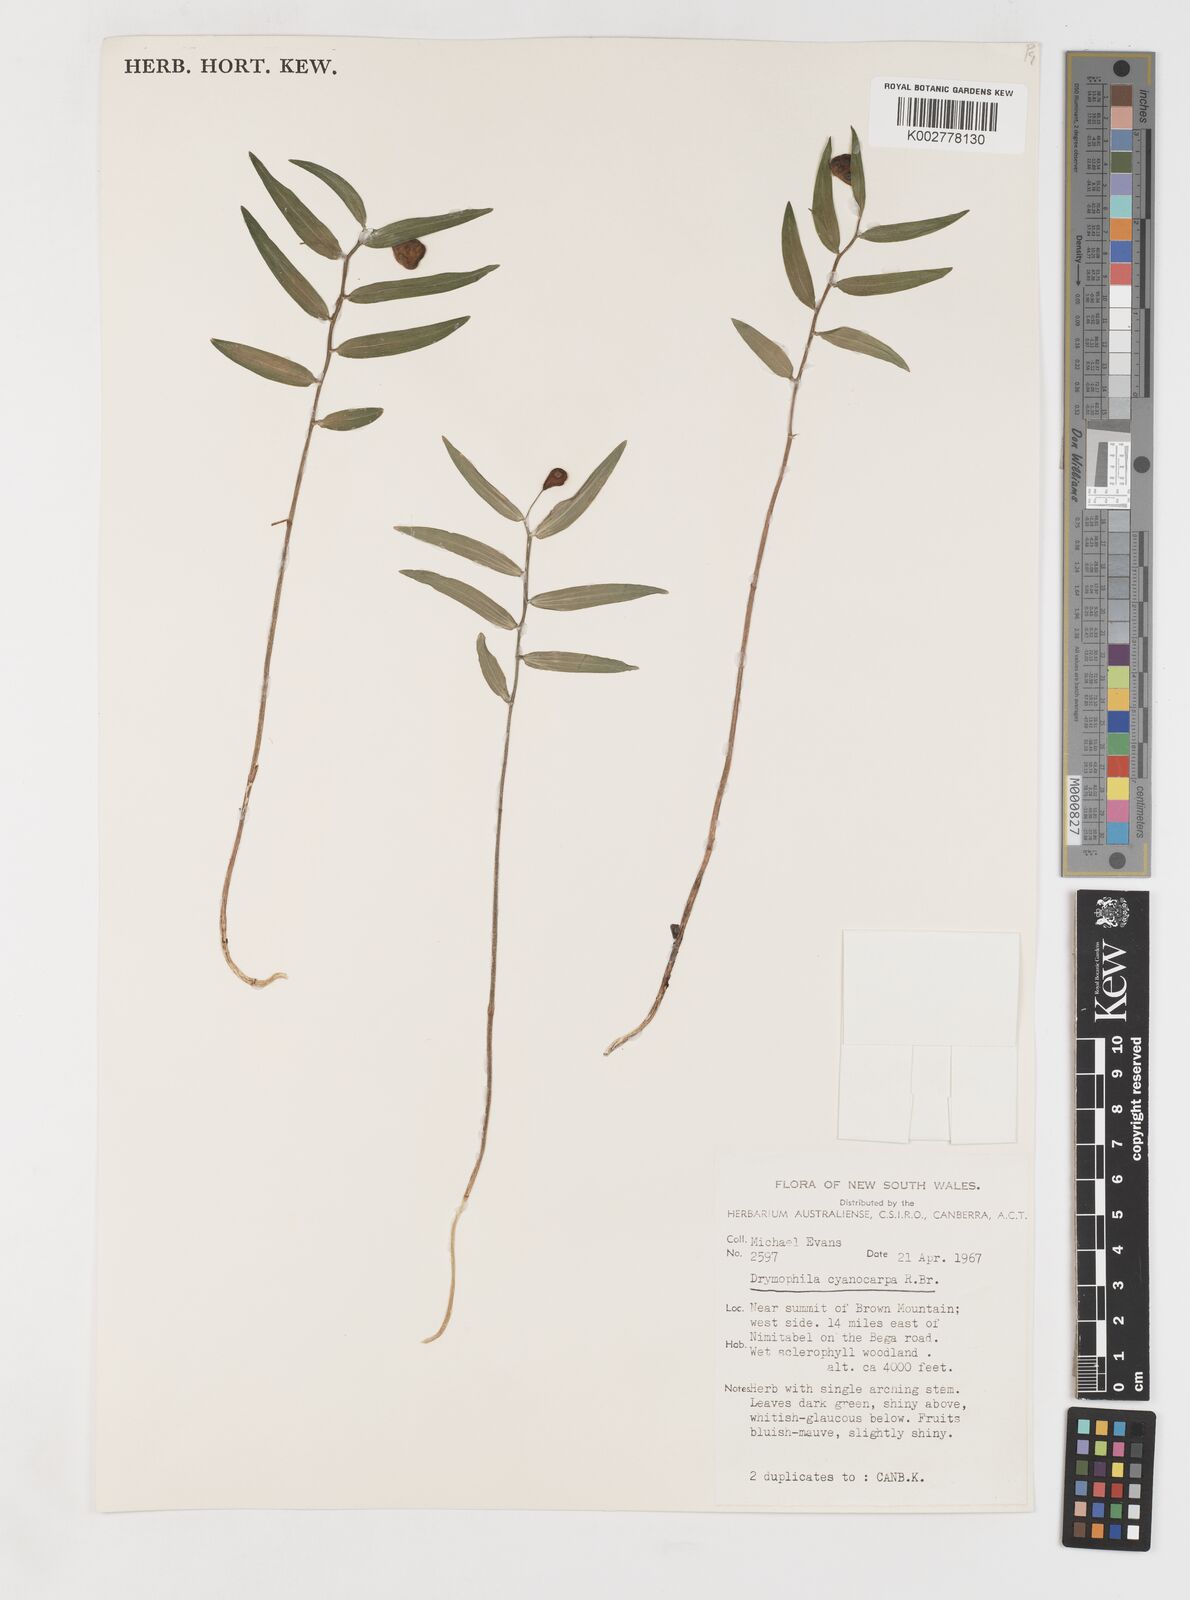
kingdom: Plantae
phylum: Tracheophyta
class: Liliopsida
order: Liliales
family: Alstroemeriaceae
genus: Drymophila
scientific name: Drymophila cyanocarpa
